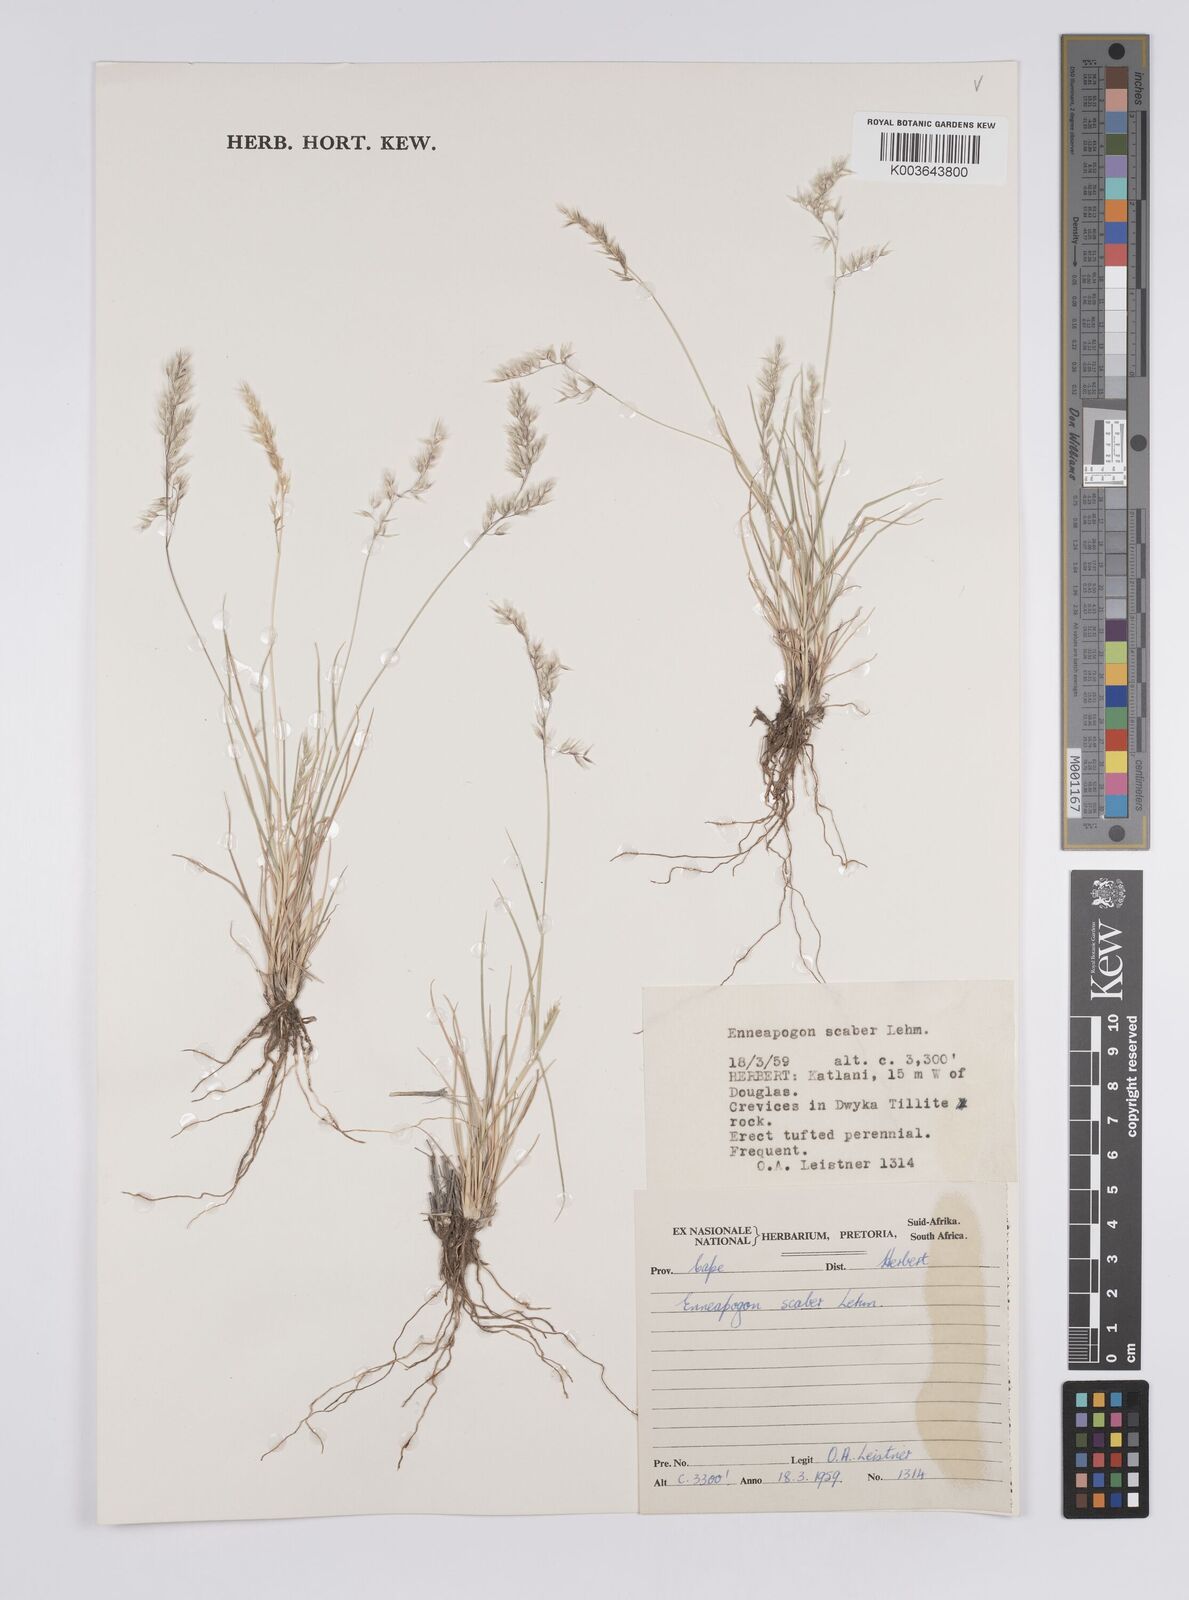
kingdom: Plantae
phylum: Tracheophyta
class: Liliopsida
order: Poales
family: Poaceae
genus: Enneapogon
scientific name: Enneapogon scaber
